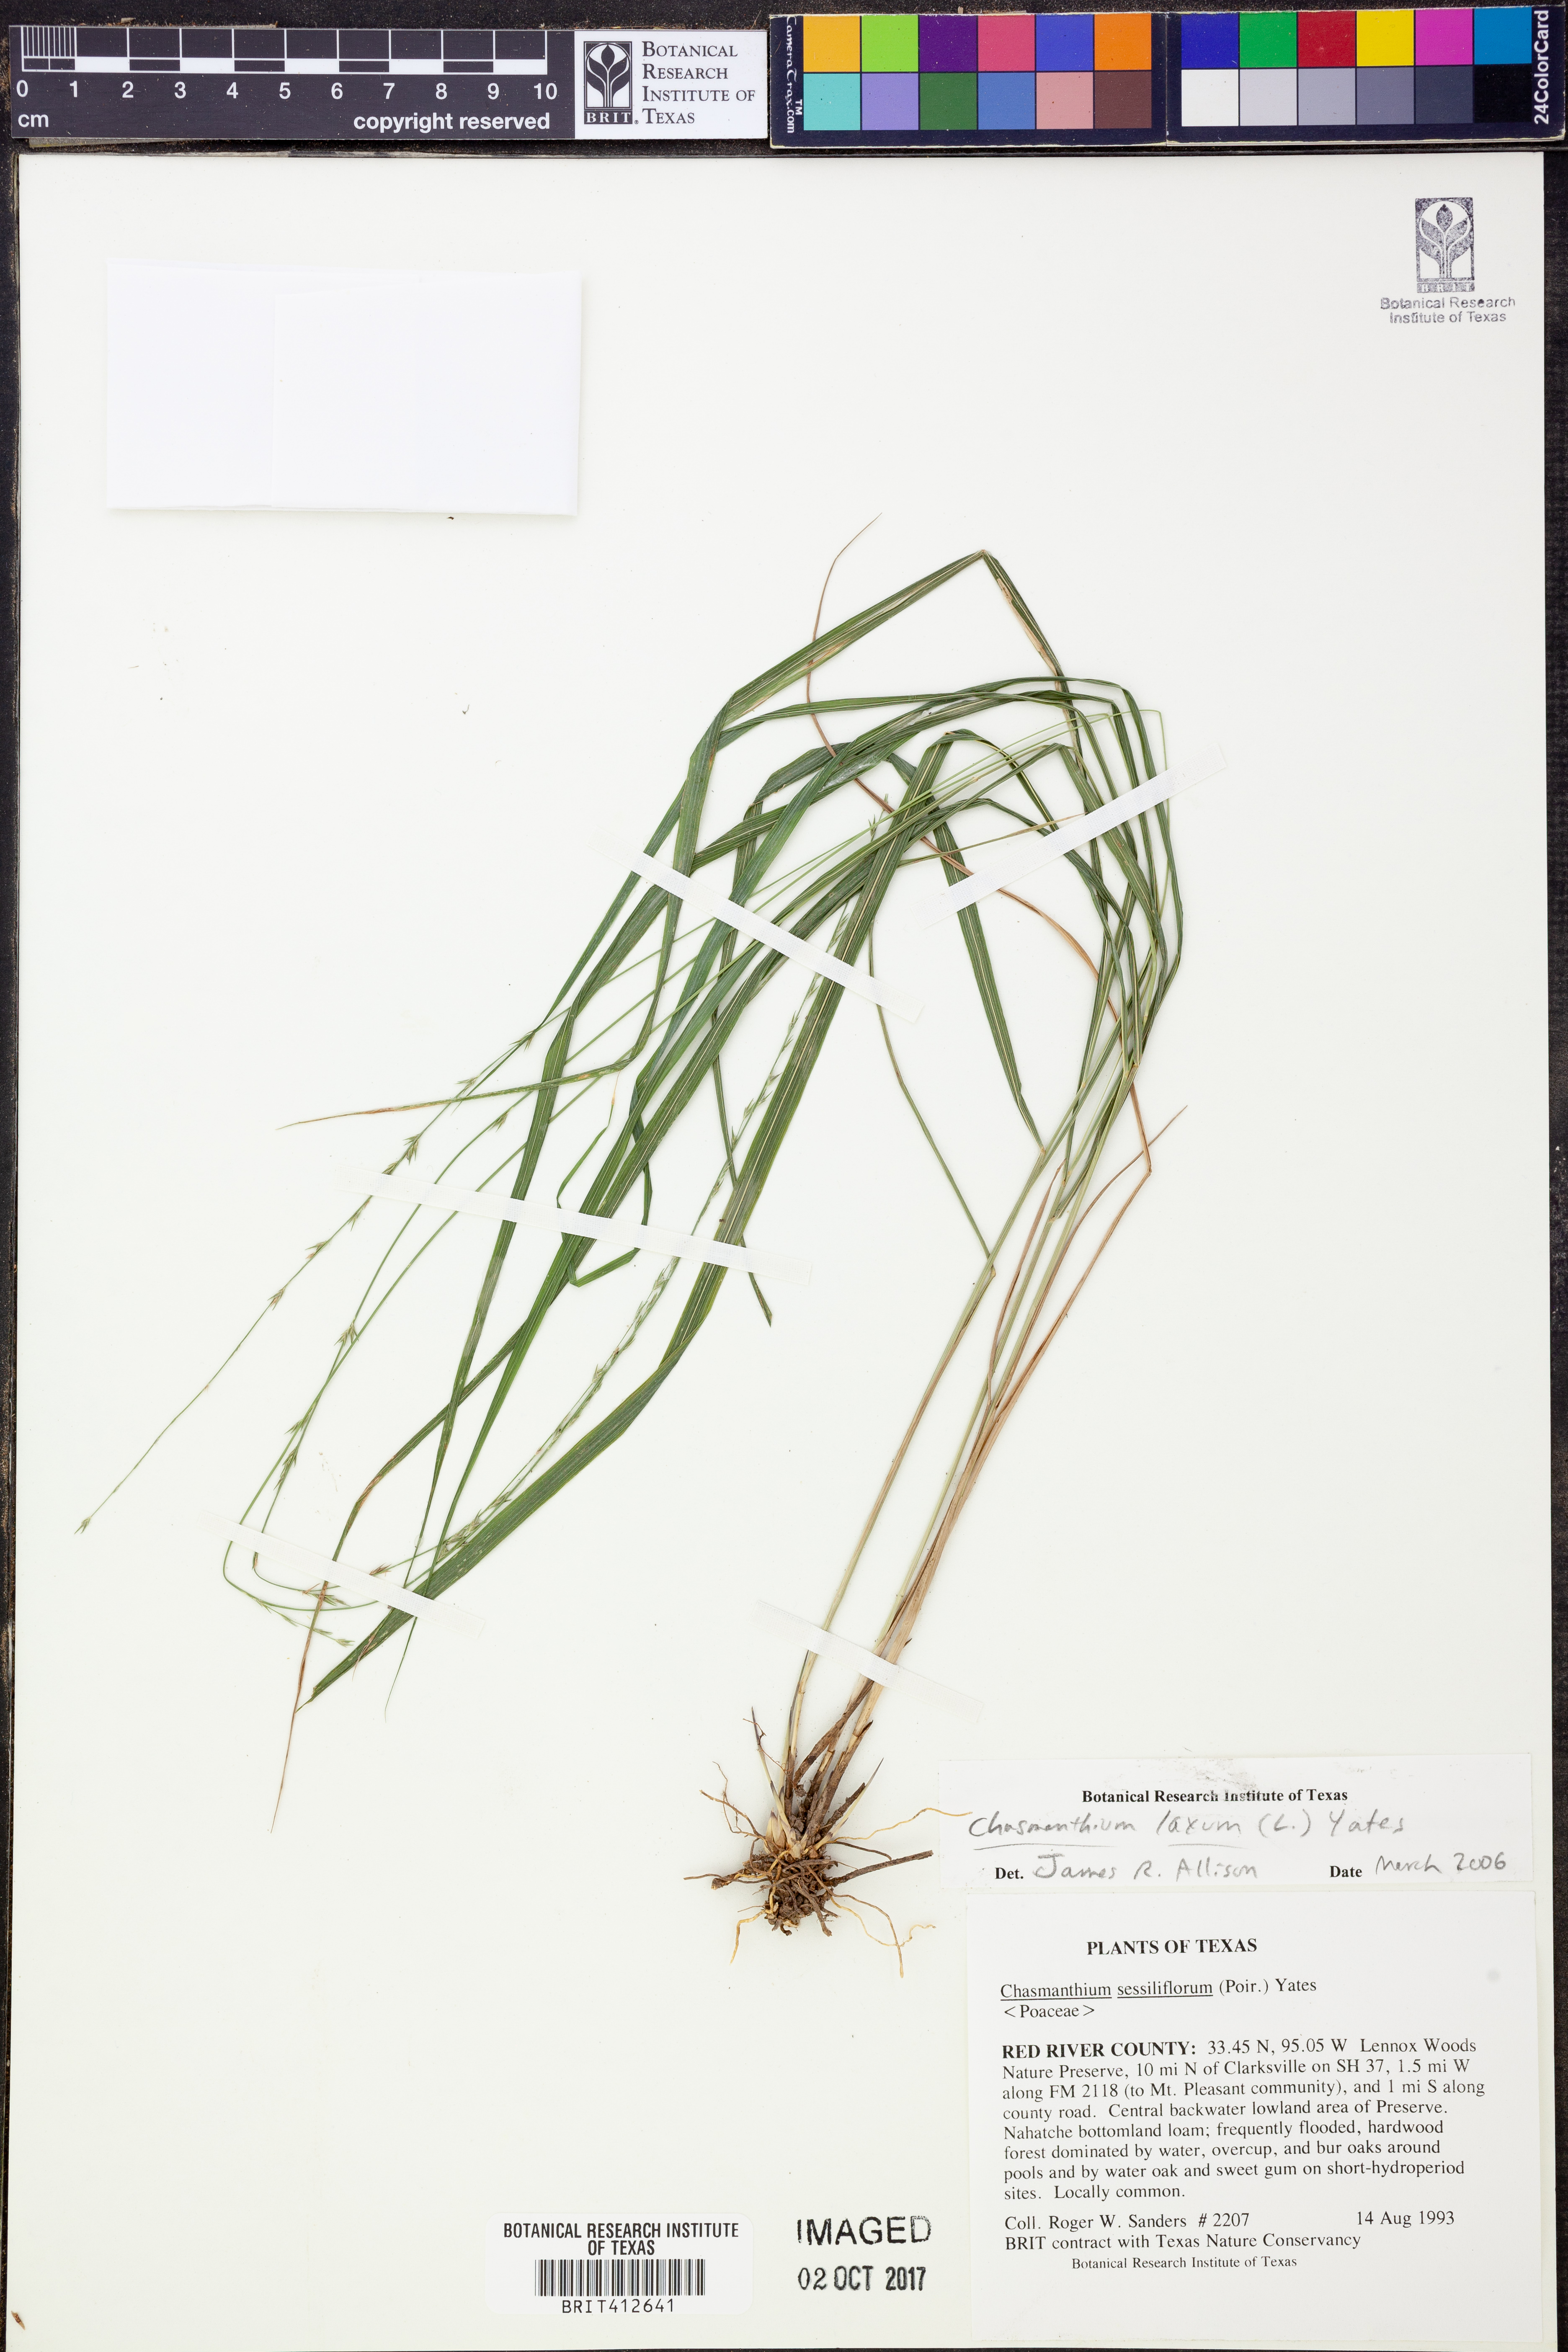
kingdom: Plantae
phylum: Tracheophyta
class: Liliopsida
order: Poales
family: Poaceae
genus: Chasmanthium
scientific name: Chasmanthium laxum
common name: Slender chasmanthium
